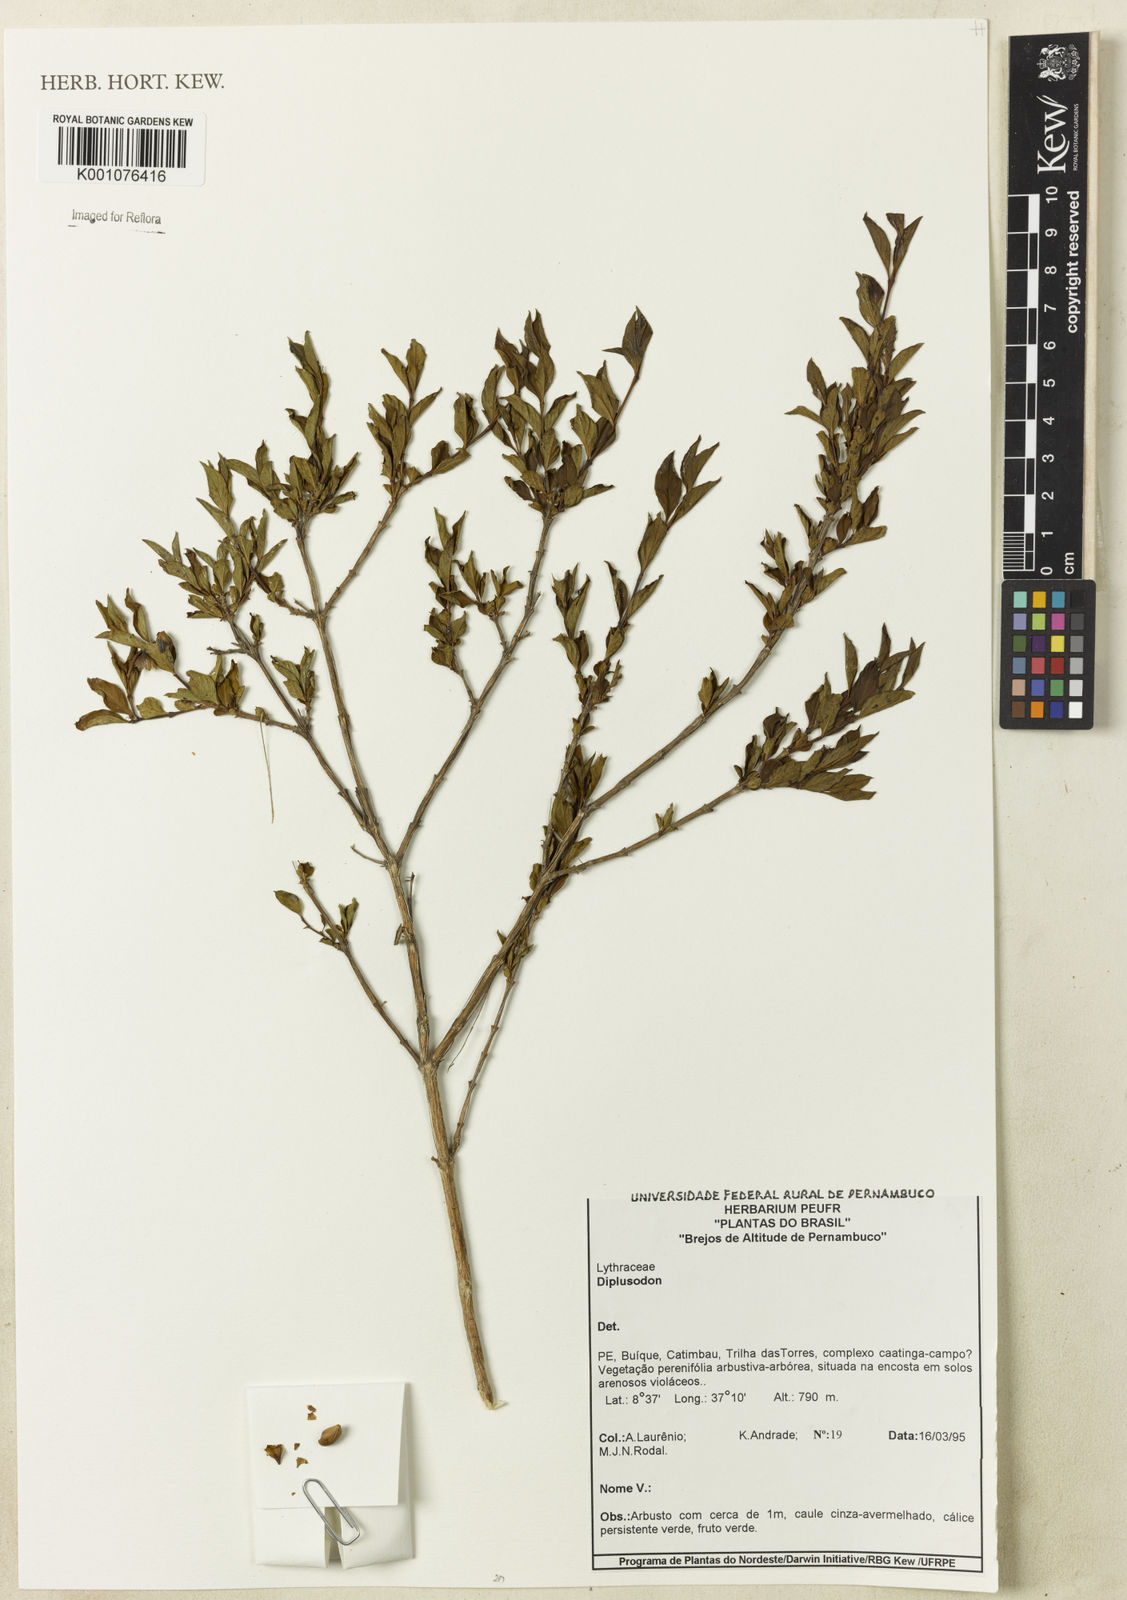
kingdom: Plantae
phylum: Tracheophyta
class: Magnoliopsida
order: Myrtales
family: Lythraceae
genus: Diplusodon
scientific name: Diplusodon
